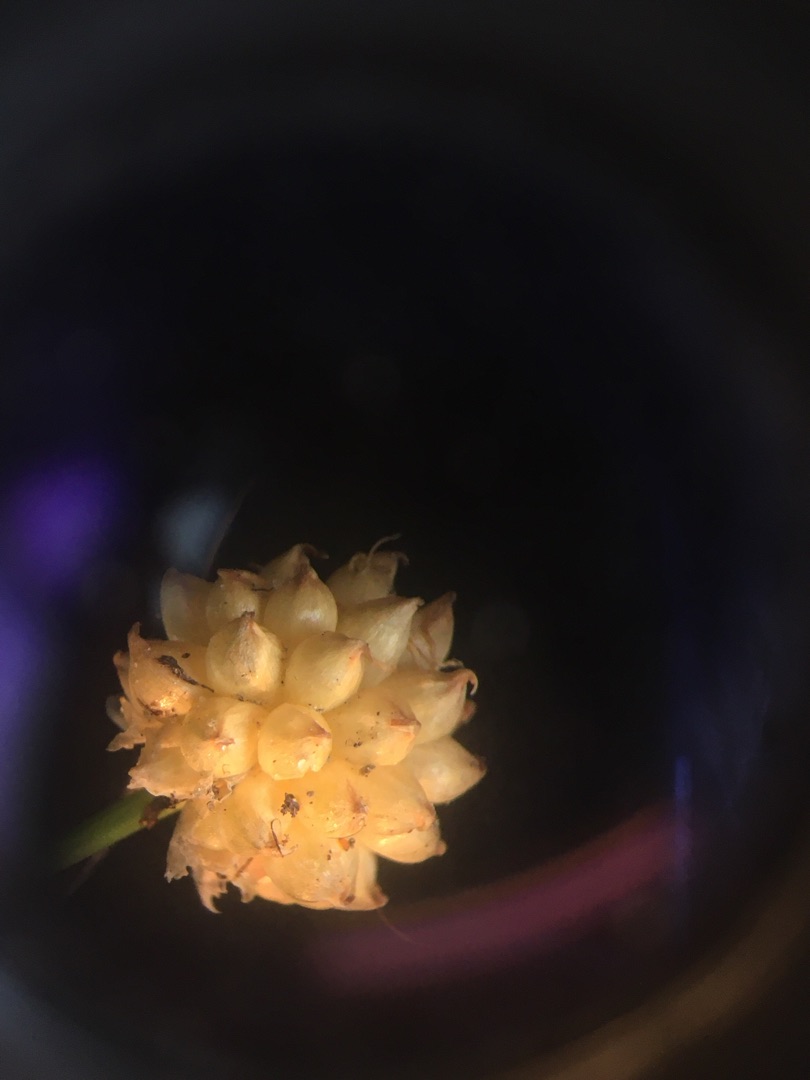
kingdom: Plantae
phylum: Tracheophyta
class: Liliopsida
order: Asparagales
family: Amaryllidaceae
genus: Allium
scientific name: Allium oleraceum
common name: Vild løg
